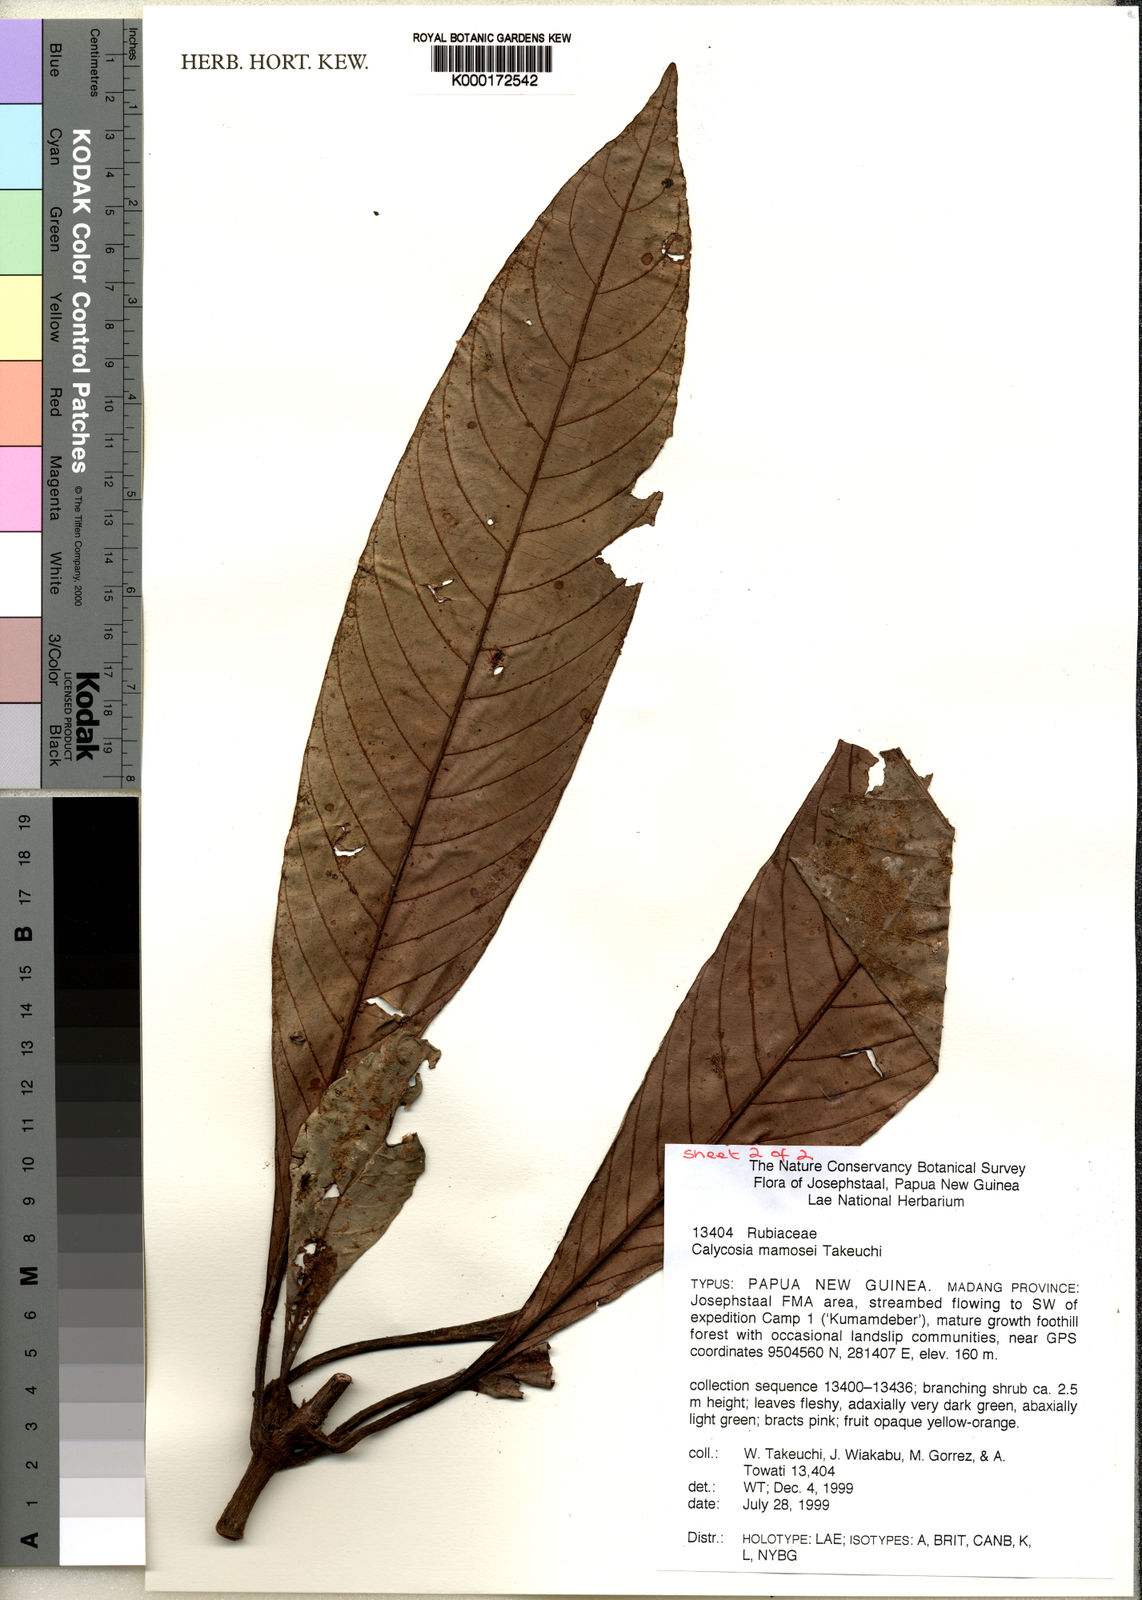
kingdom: Plantae
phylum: Tracheophyta
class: Magnoliopsida
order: Gentianales
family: Rubiaceae
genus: Calycosia
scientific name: Calycosia mamosei
